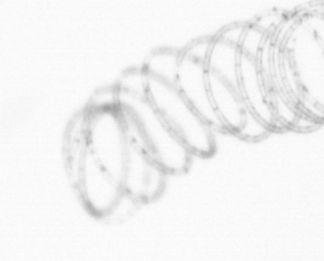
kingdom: Chromista
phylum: Ochrophyta
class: Bacillariophyceae
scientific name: Bacillariophyceae
